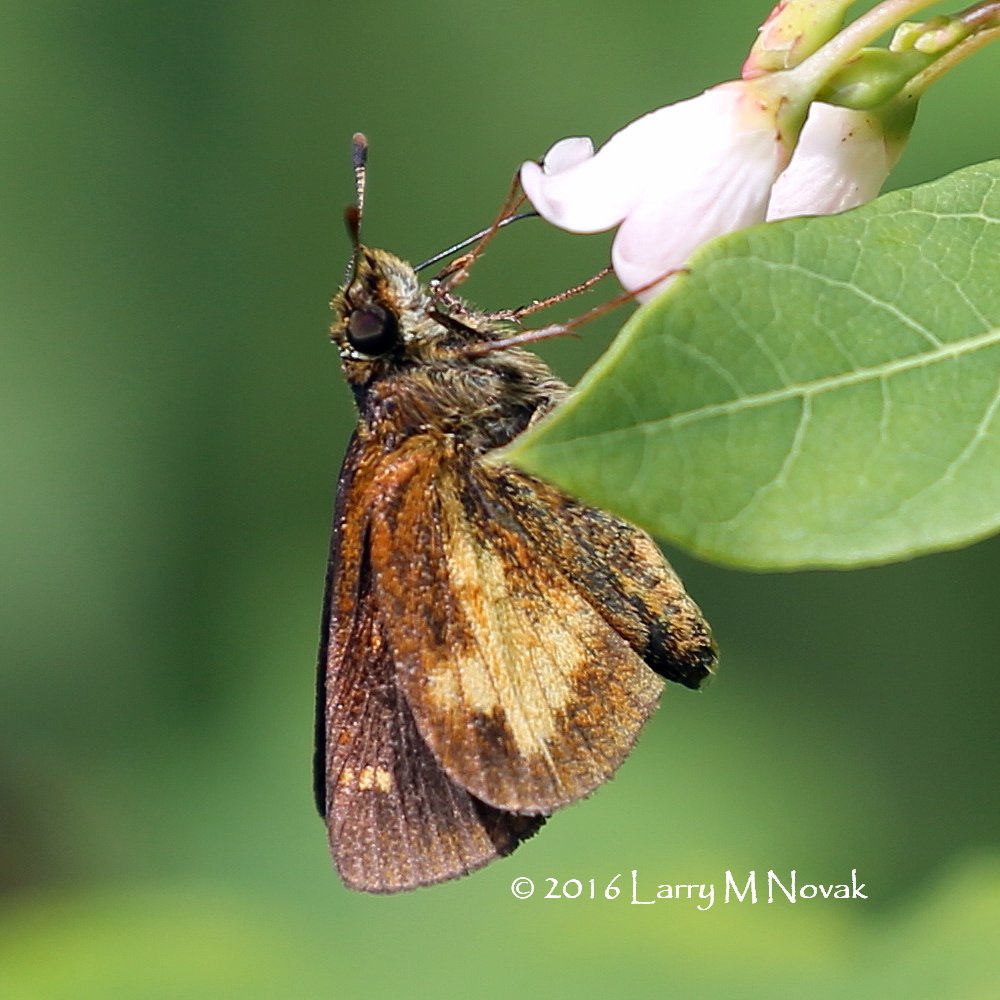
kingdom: Animalia
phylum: Arthropoda
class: Insecta
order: Lepidoptera
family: Hesperiidae
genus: Poanes
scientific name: Poanes massasoit
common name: Mulberry Wing
